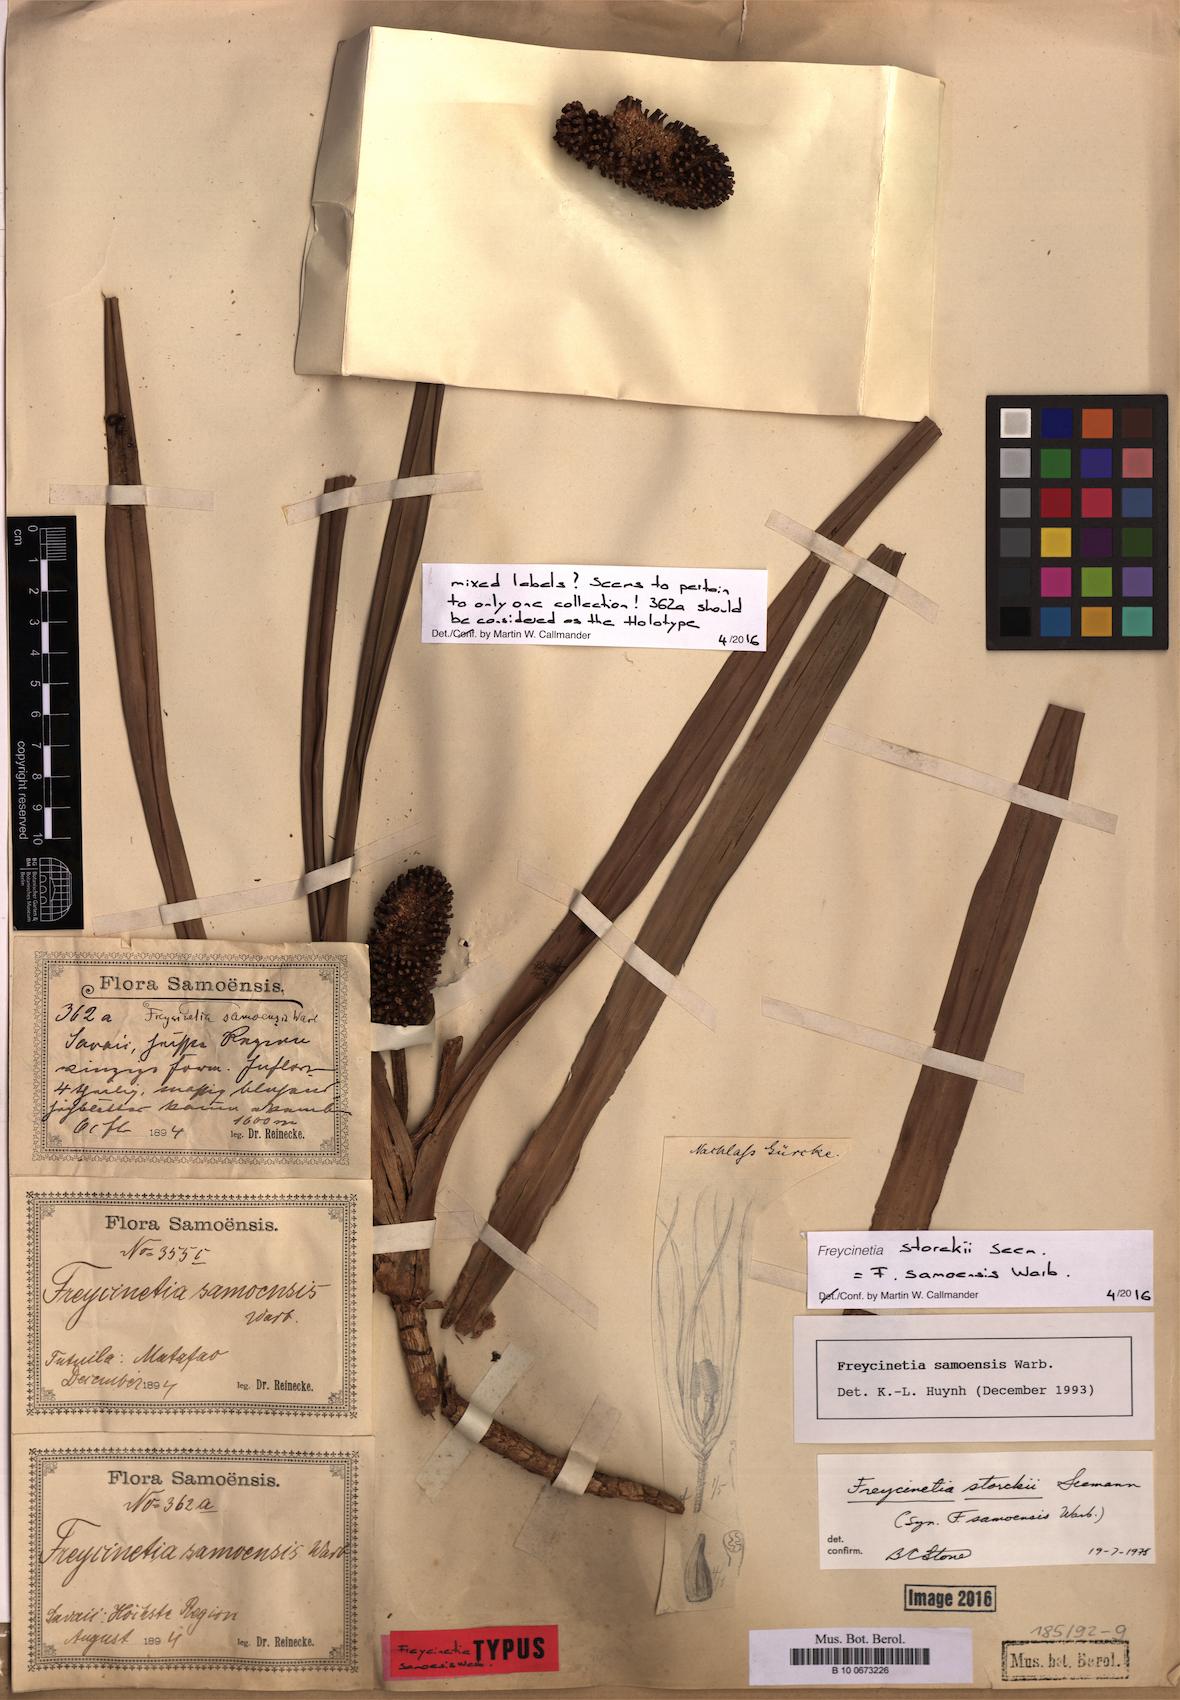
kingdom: Plantae
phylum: Tracheophyta
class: Liliopsida
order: Pandanales
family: Pandanaceae
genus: Freycinetia
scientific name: Freycinetia storckii
